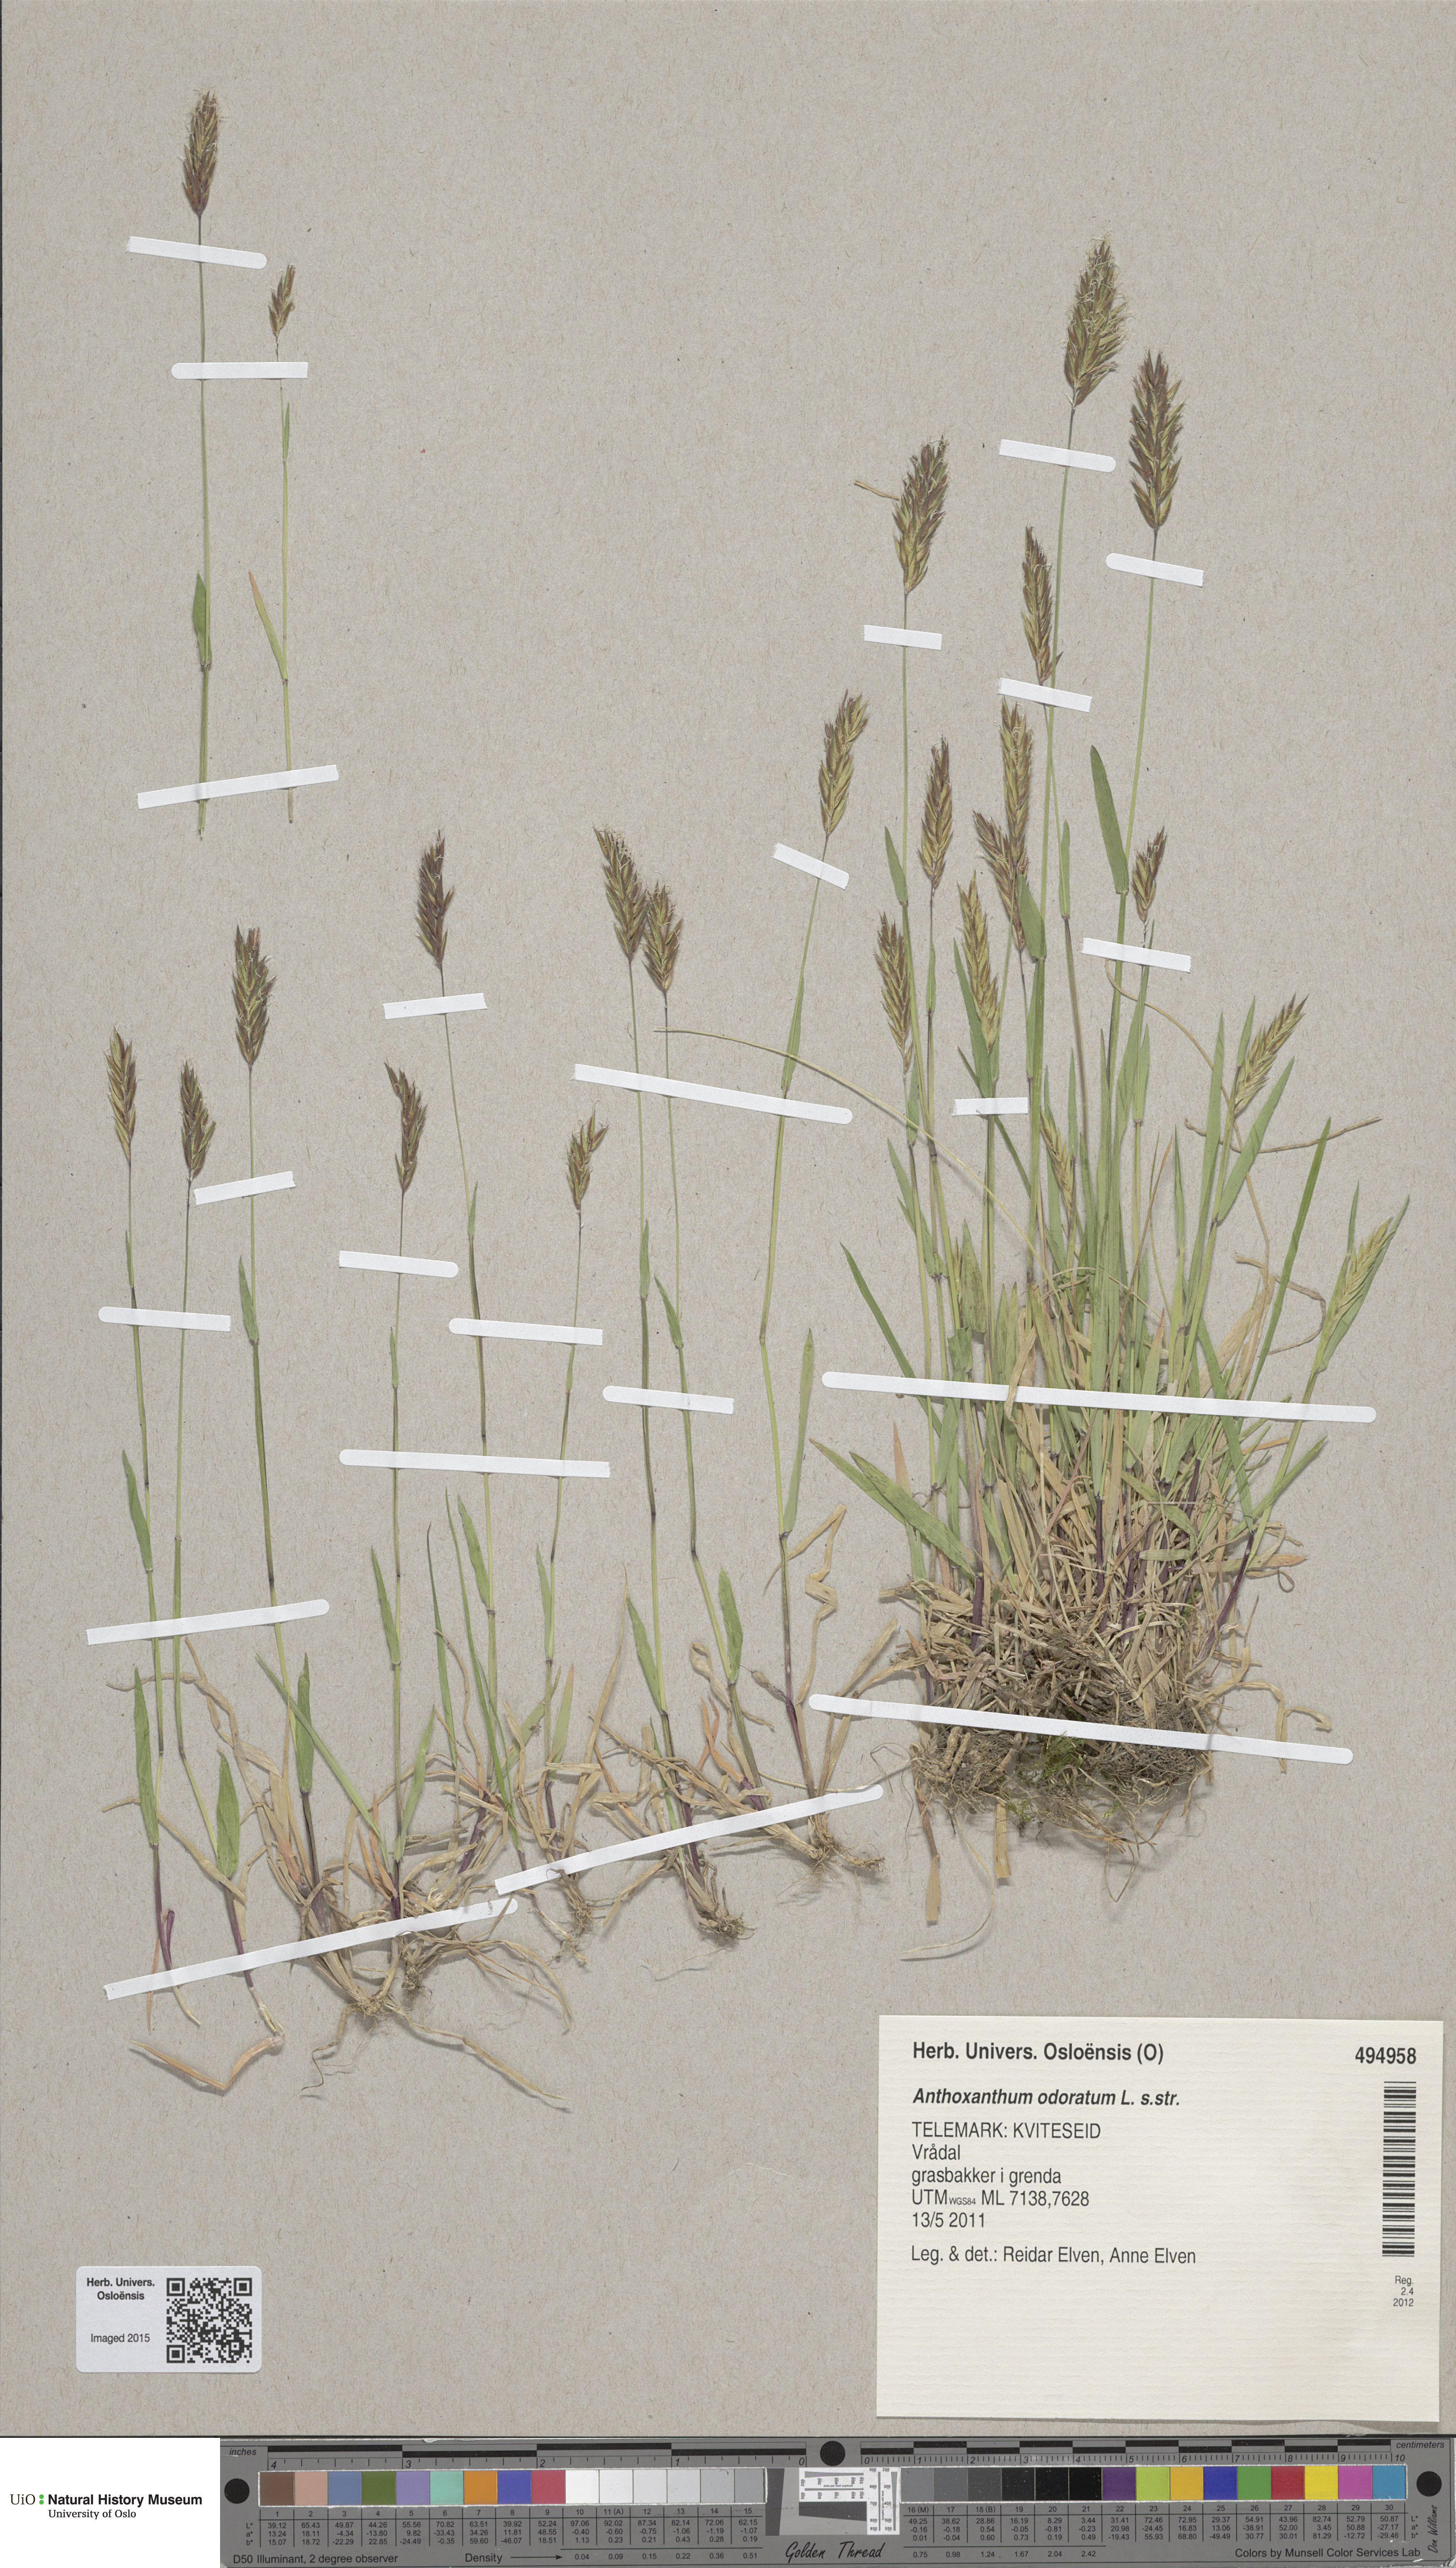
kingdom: Plantae
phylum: Tracheophyta
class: Liliopsida
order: Poales
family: Poaceae
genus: Anthoxanthum
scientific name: Anthoxanthum odoratum
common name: Sweet vernalgrass
